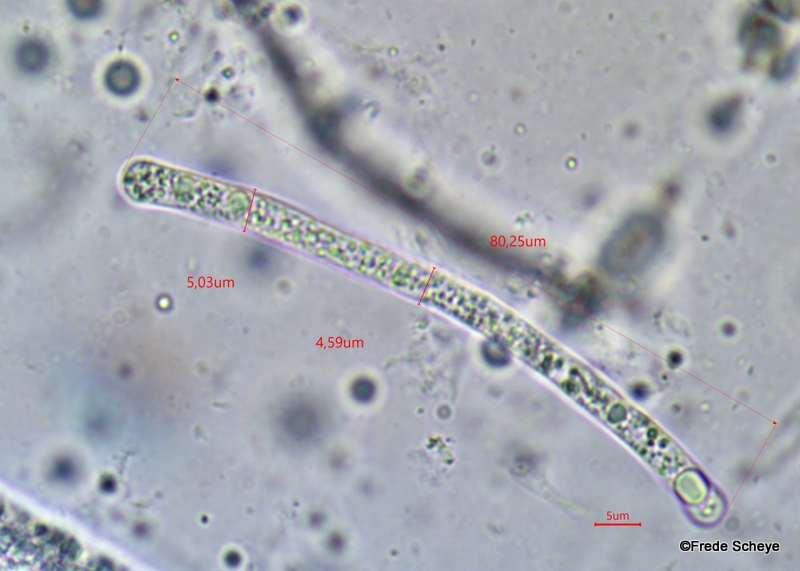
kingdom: Fungi
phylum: Ascomycota
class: Sordariomycetes
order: Diaporthales
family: Gnomoniaceae
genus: Cryptosporella
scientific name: Cryptosporella corylina
